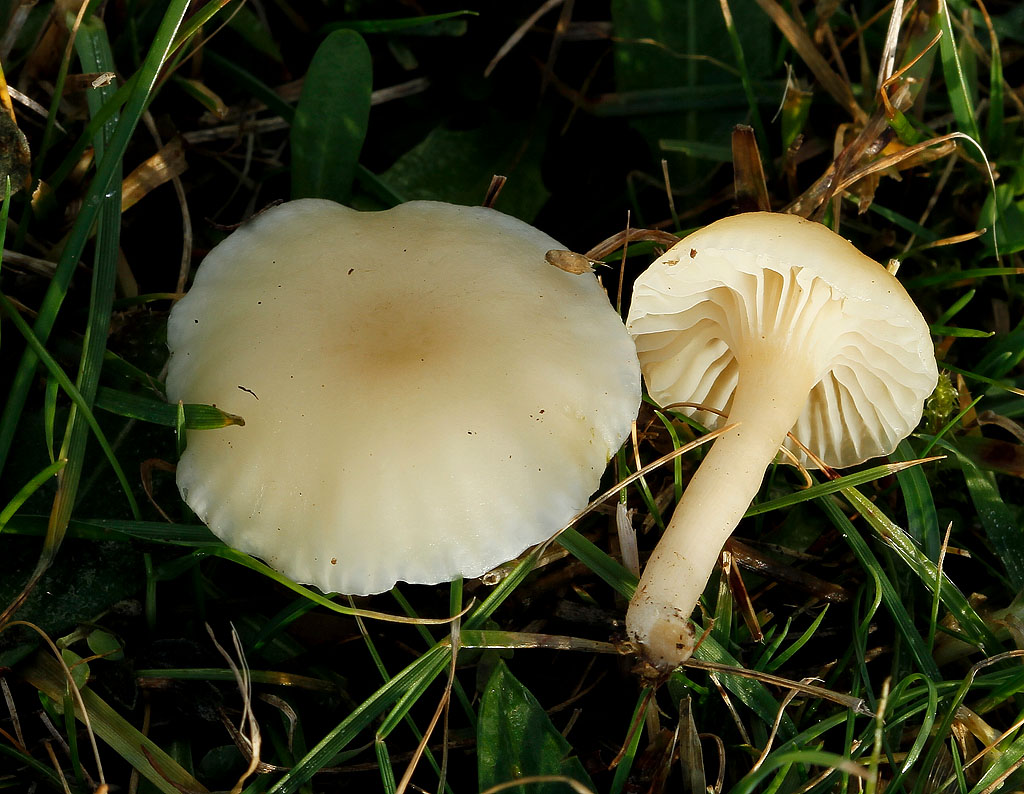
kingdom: Fungi
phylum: Basidiomycota
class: Agaricomycetes
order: Agaricales
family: Hygrophoraceae
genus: Cuphophyllus
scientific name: Cuphophyllus russocoriaceus
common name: ruslæder-vokshat
